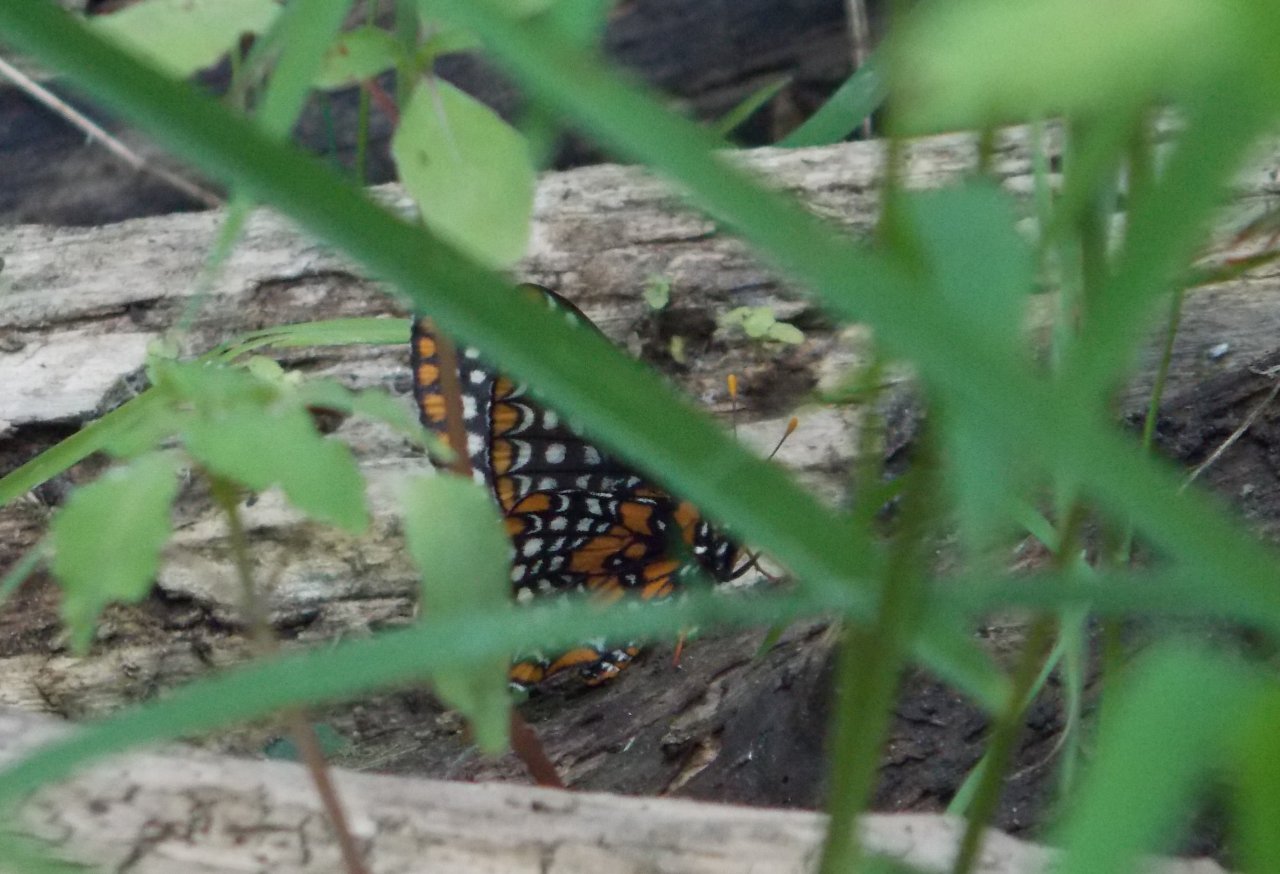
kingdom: Animalia
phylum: Arthropoda
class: Insecta
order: Lepidoptera
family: Nymphalidae
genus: Euphydryas
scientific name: Euphydryas phaeton
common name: Baltimore Checkerspot
